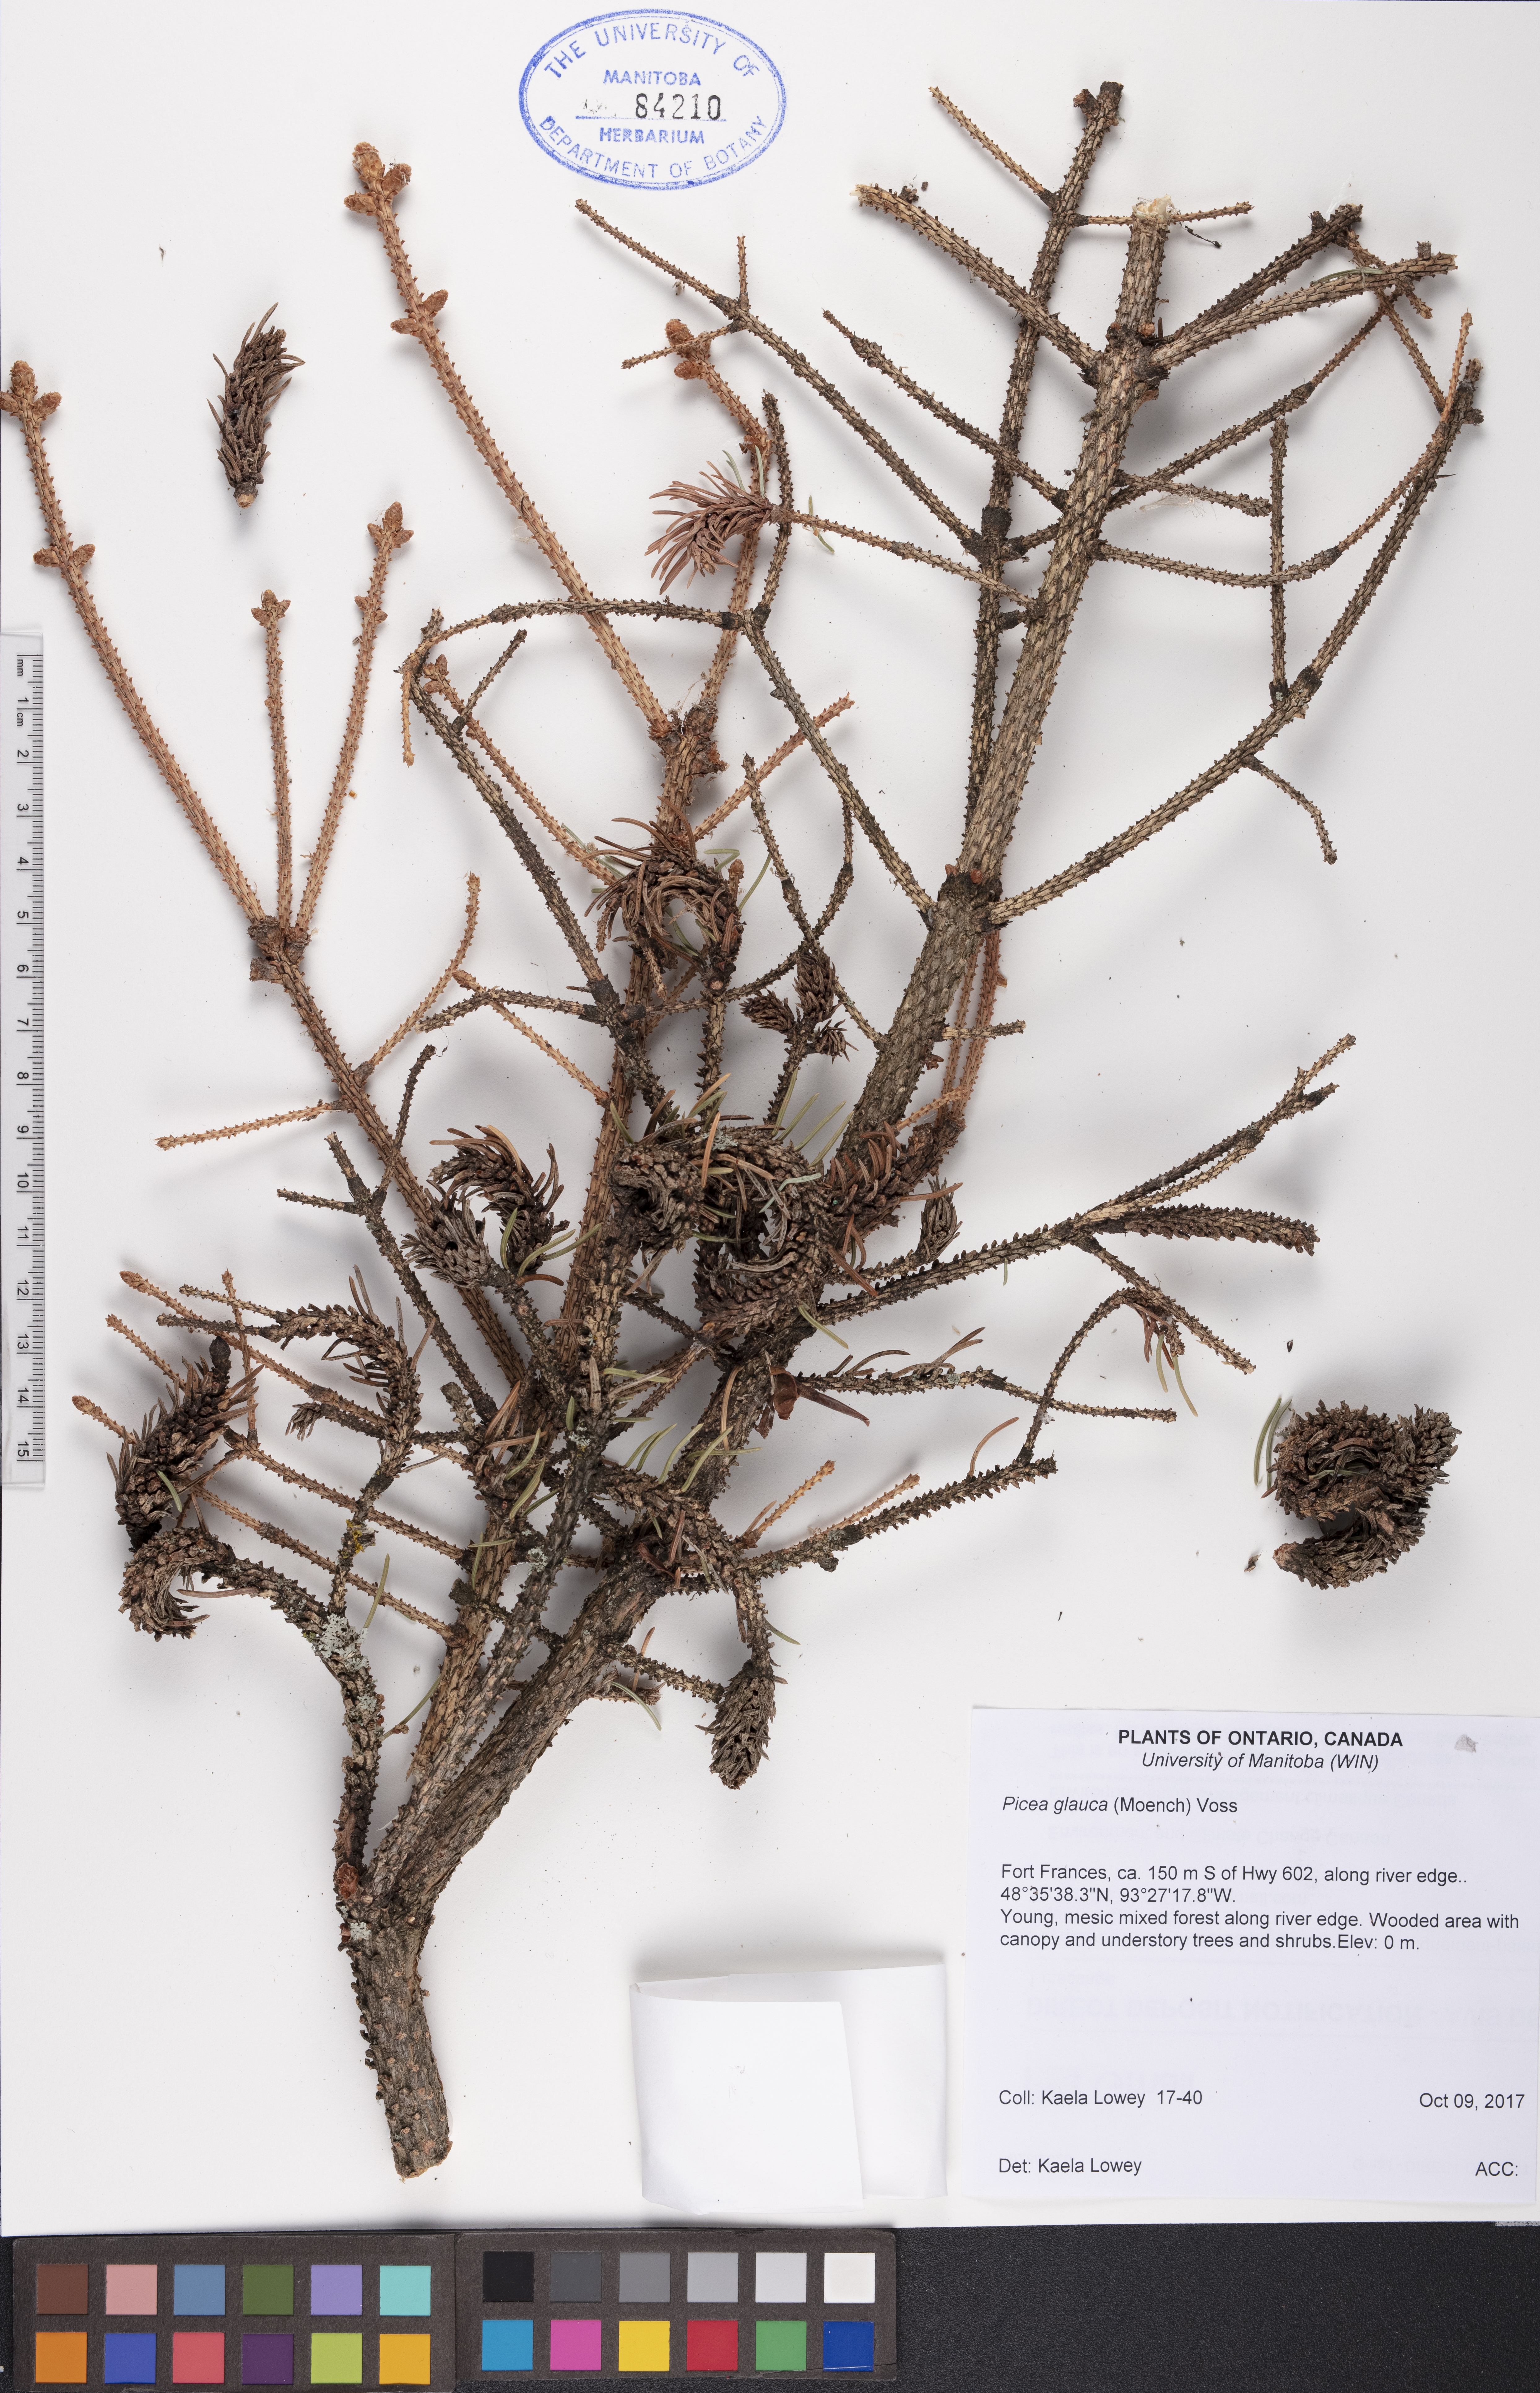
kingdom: Plantae
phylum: Tracheophyta
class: Pinopsida
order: Pinales
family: Pinaceae
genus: Picea
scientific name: Picea glauca
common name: White spruce
